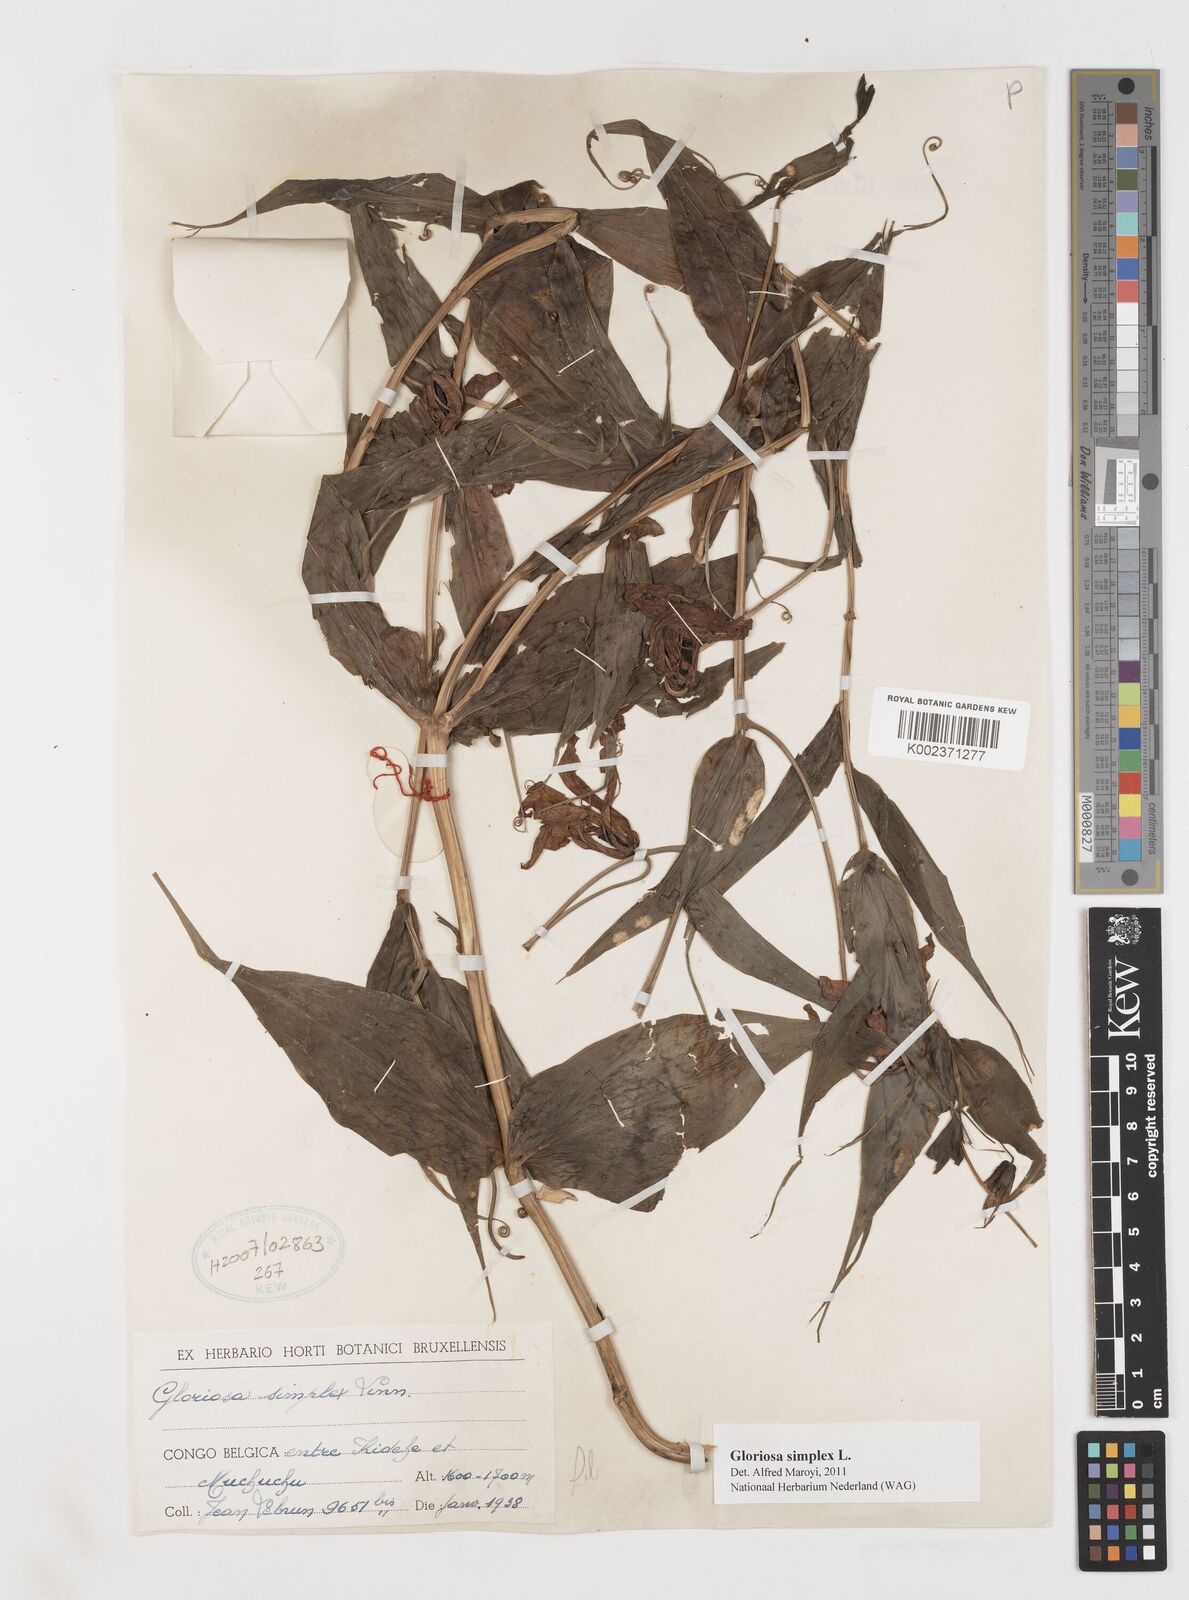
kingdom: Plantae
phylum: Tracheophyta
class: Liliopsida
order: Liliales
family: Colchicaceae
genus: Gloriosa
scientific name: Gloriosa simplex
